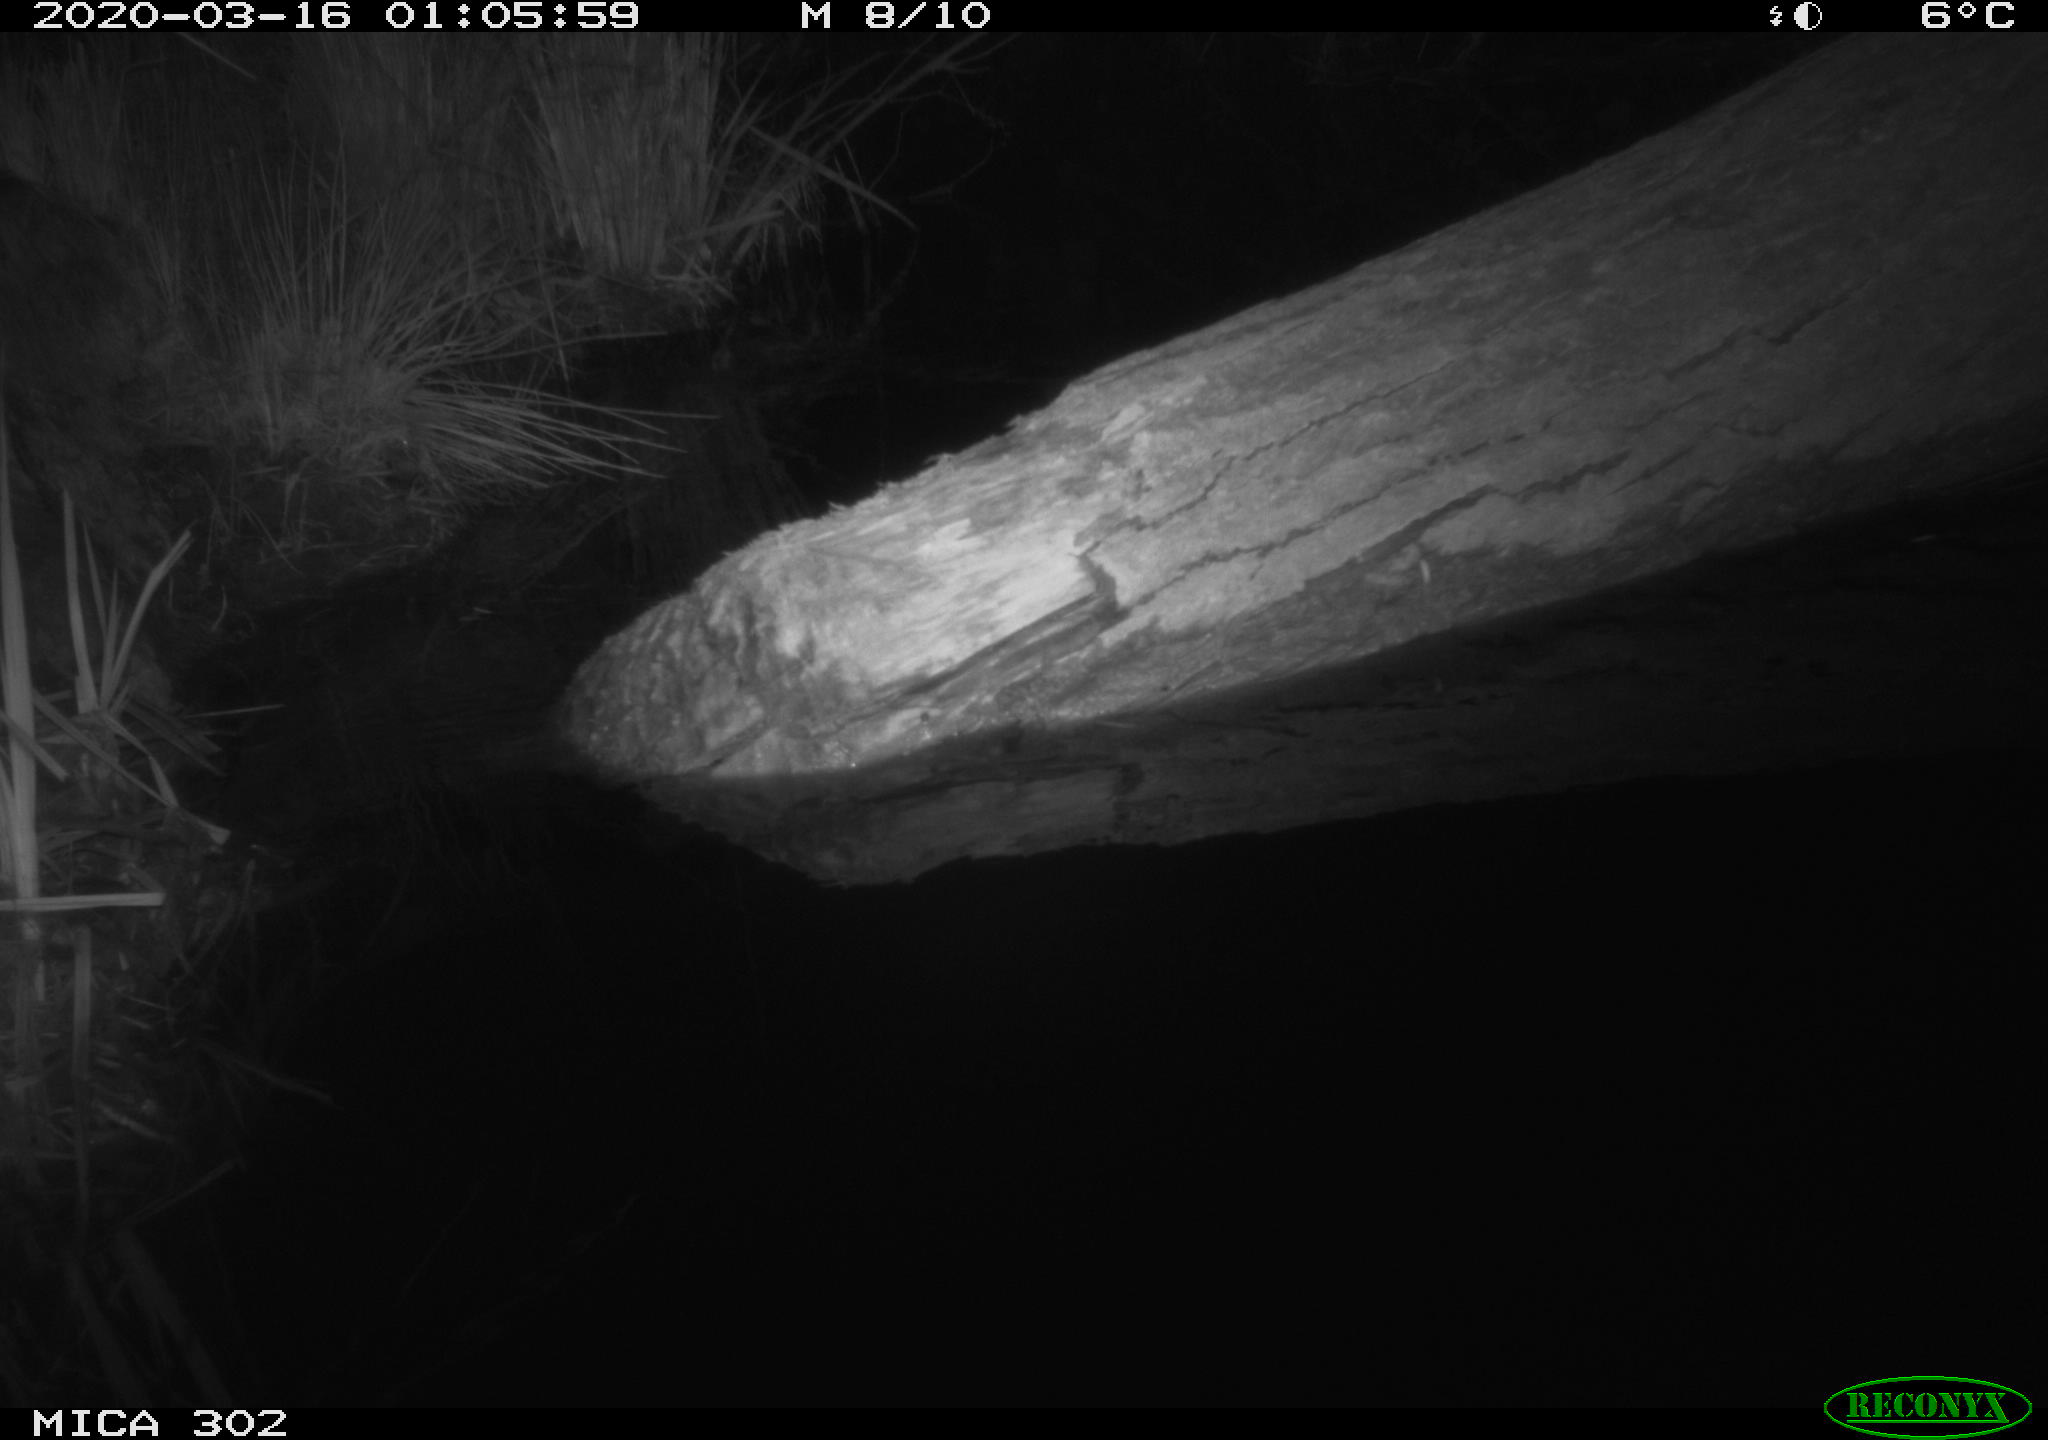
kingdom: Animalia
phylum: Chordata
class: Mammalia
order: Carnivora
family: Mustelidae
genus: Martes
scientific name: Martes foina
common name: Beech marten
